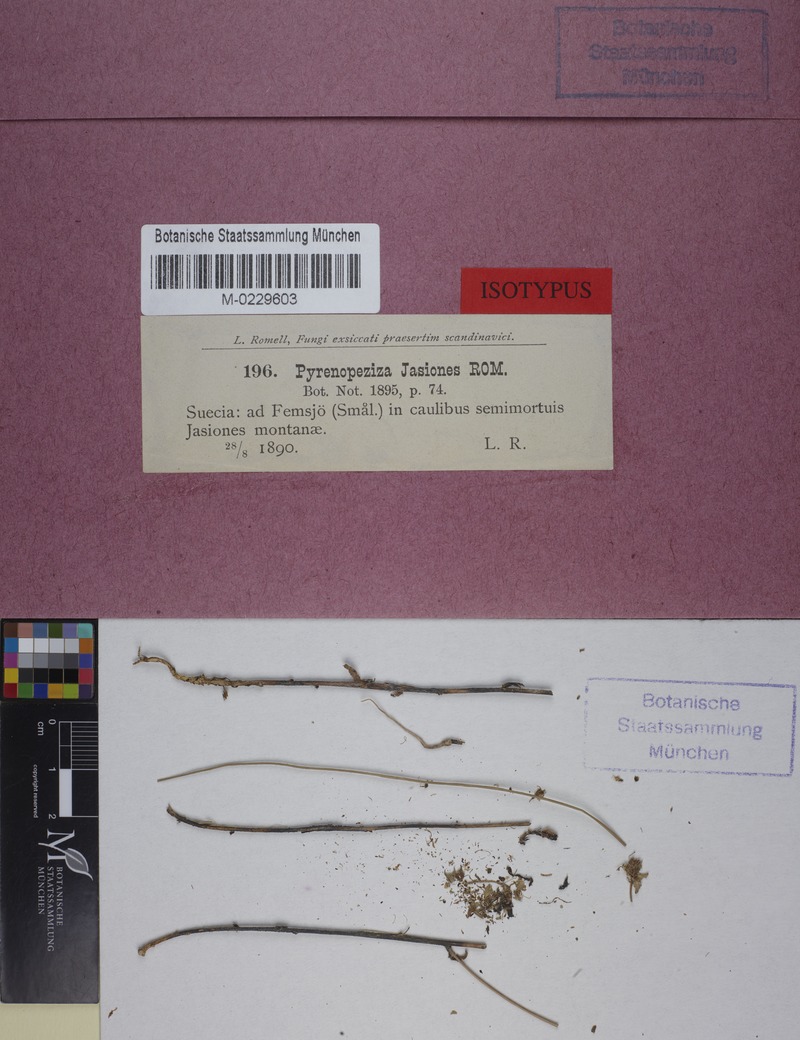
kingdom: Fungi
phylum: Ascomycota
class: Leotiomycetes
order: Helotiales
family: Drepanopezizaceae
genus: Pseudopeziza
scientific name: Pseudopeziza jasiones
